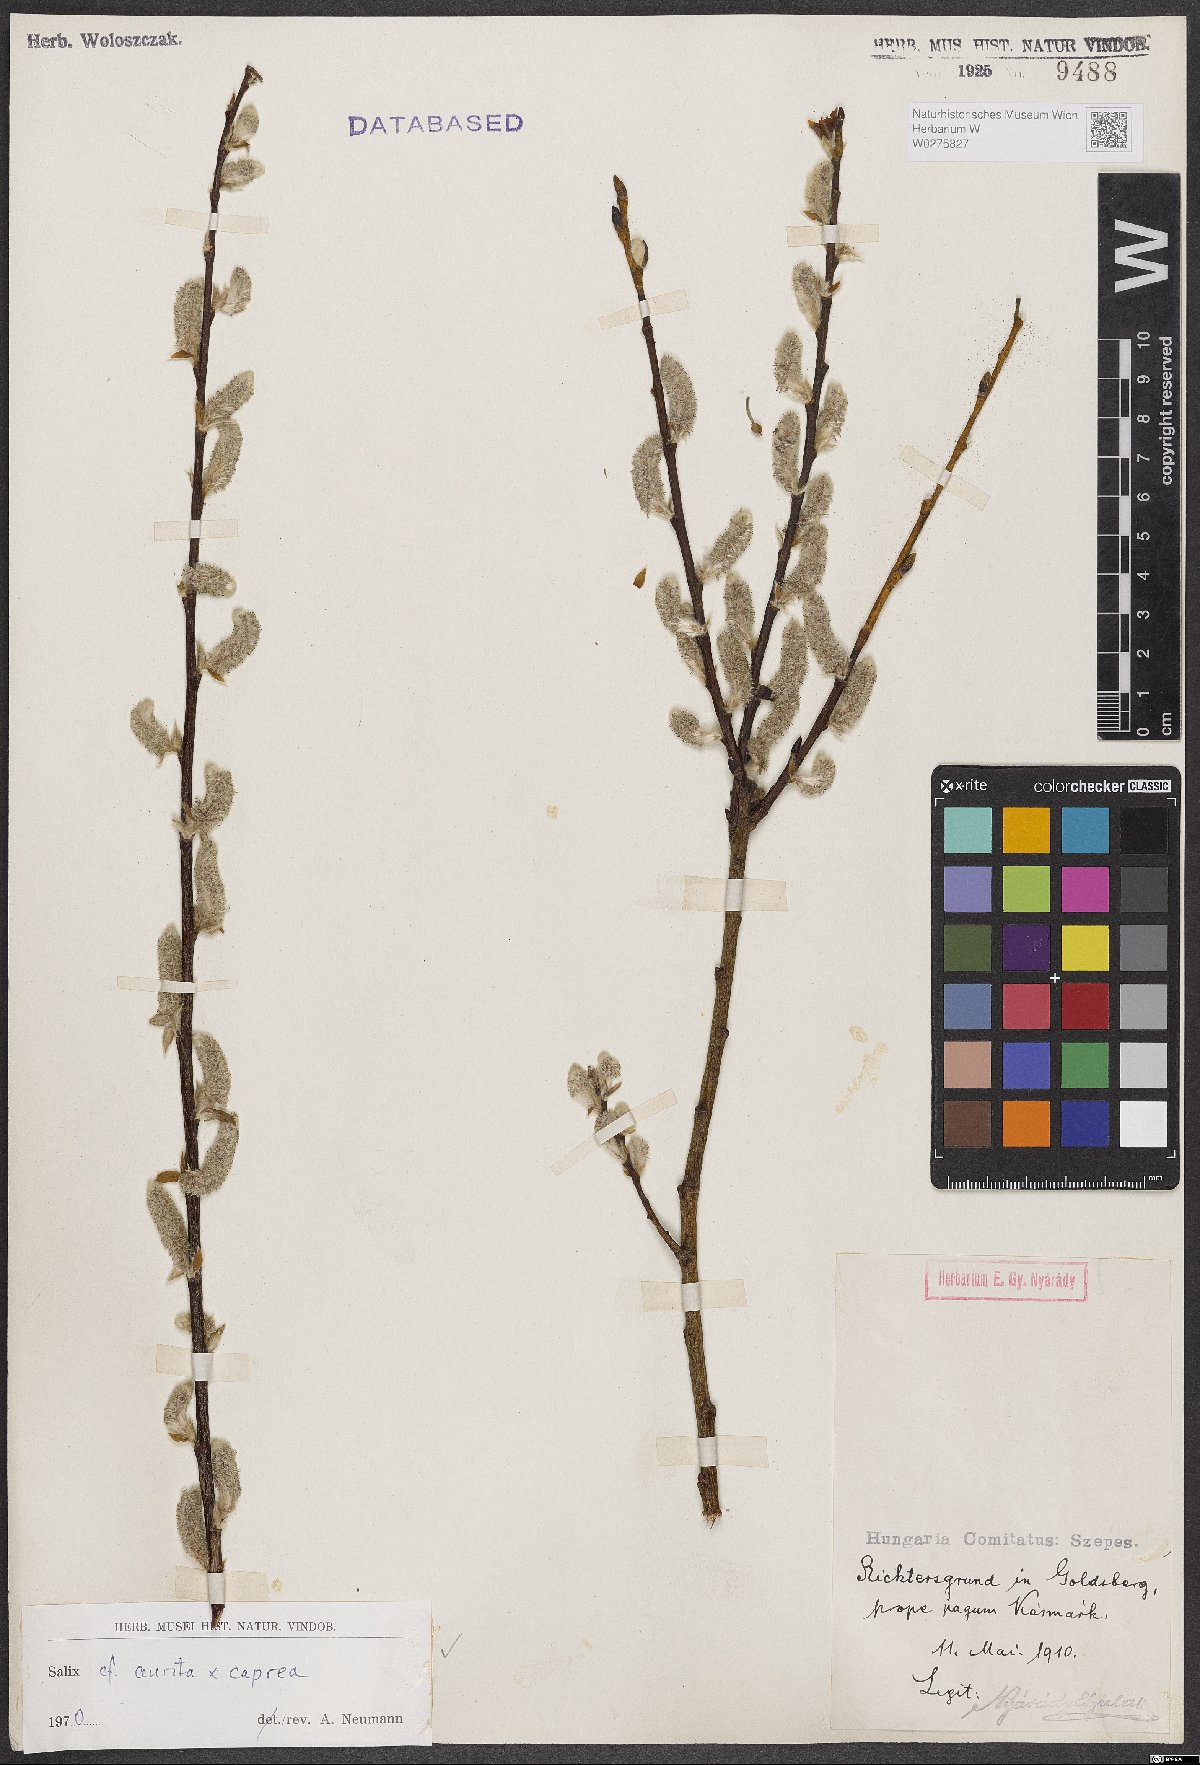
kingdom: Plantae
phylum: Tracheophyta
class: Magnoliopsida
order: Malpighiales
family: Salicaceae
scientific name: Salicaceae
